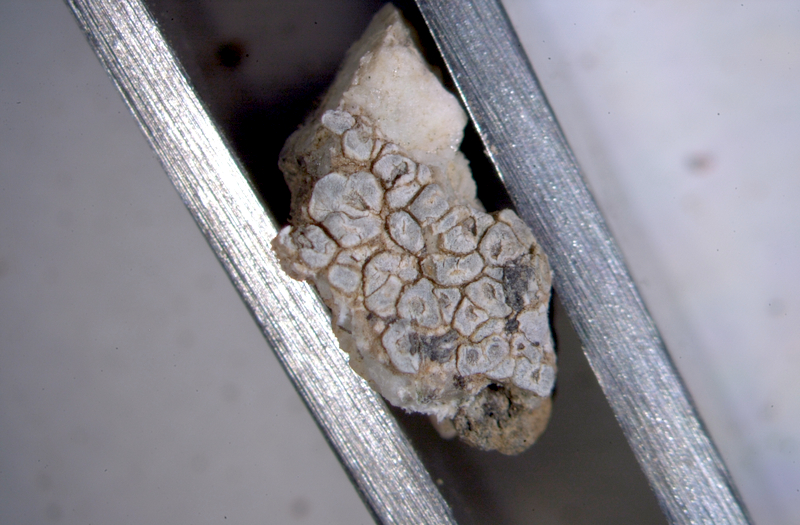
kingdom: Fungi
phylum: Ascomycota
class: Lecanoromycetes
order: Ostropales
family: Graphidaceae
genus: Diploschistes
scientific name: Diploschistes actinostomus
